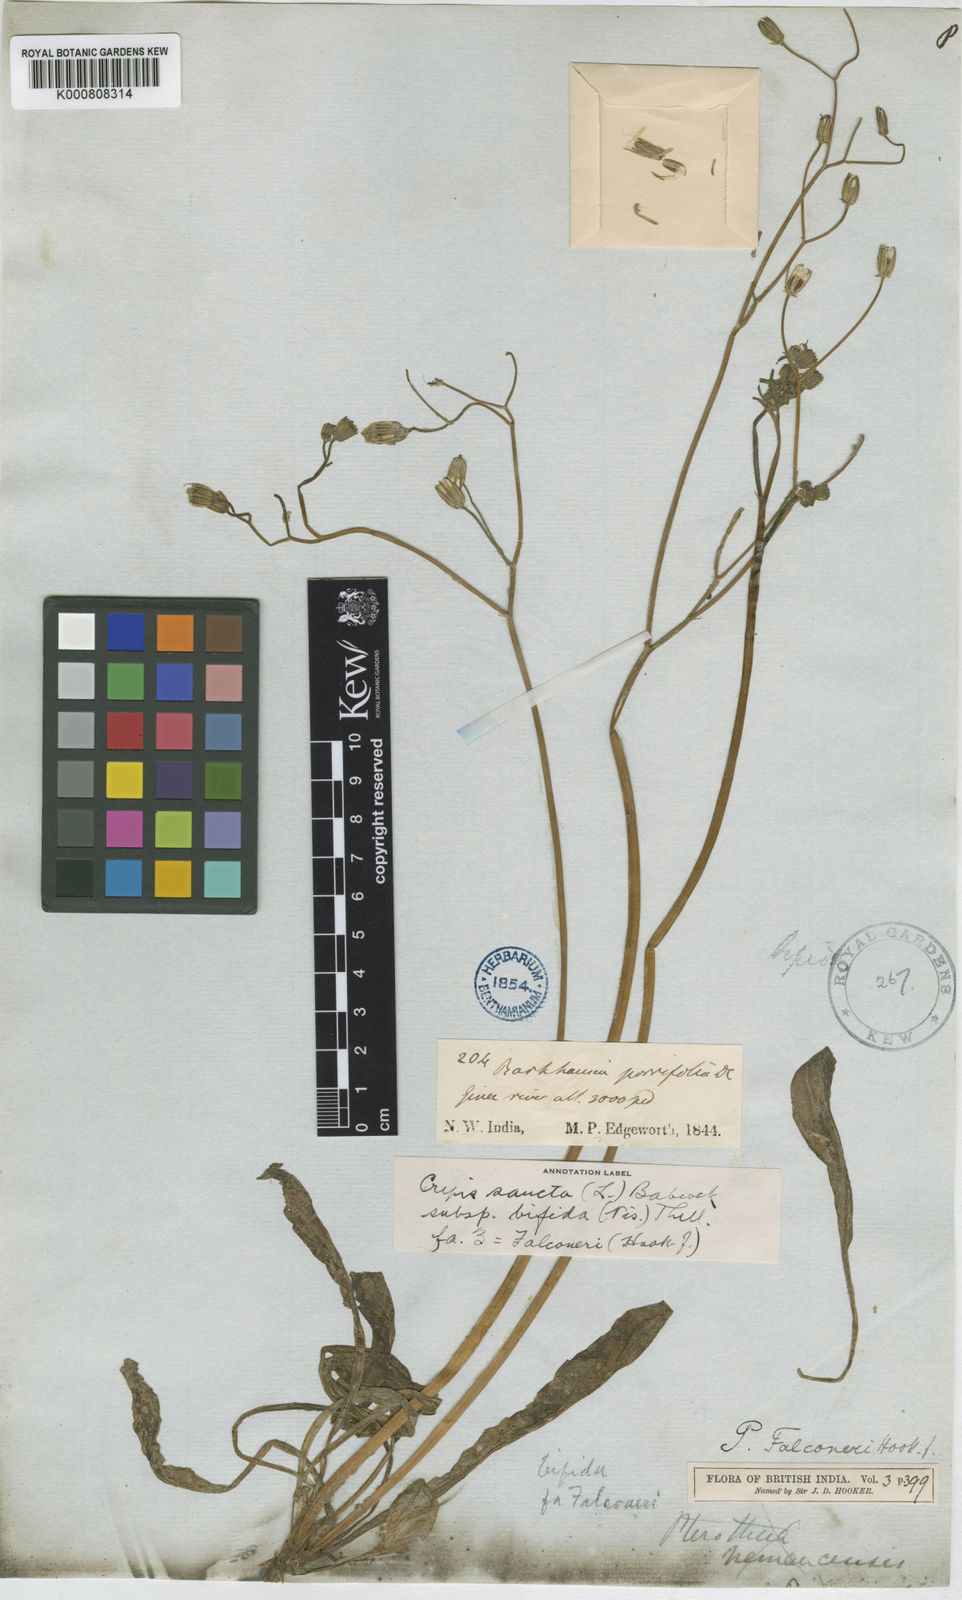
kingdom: Plantae
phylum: Tracheophyta
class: Magnoliopsida
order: Asterales
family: Asteraceae
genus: Crepis
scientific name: Crepis sancta
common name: Hawk's-beard
